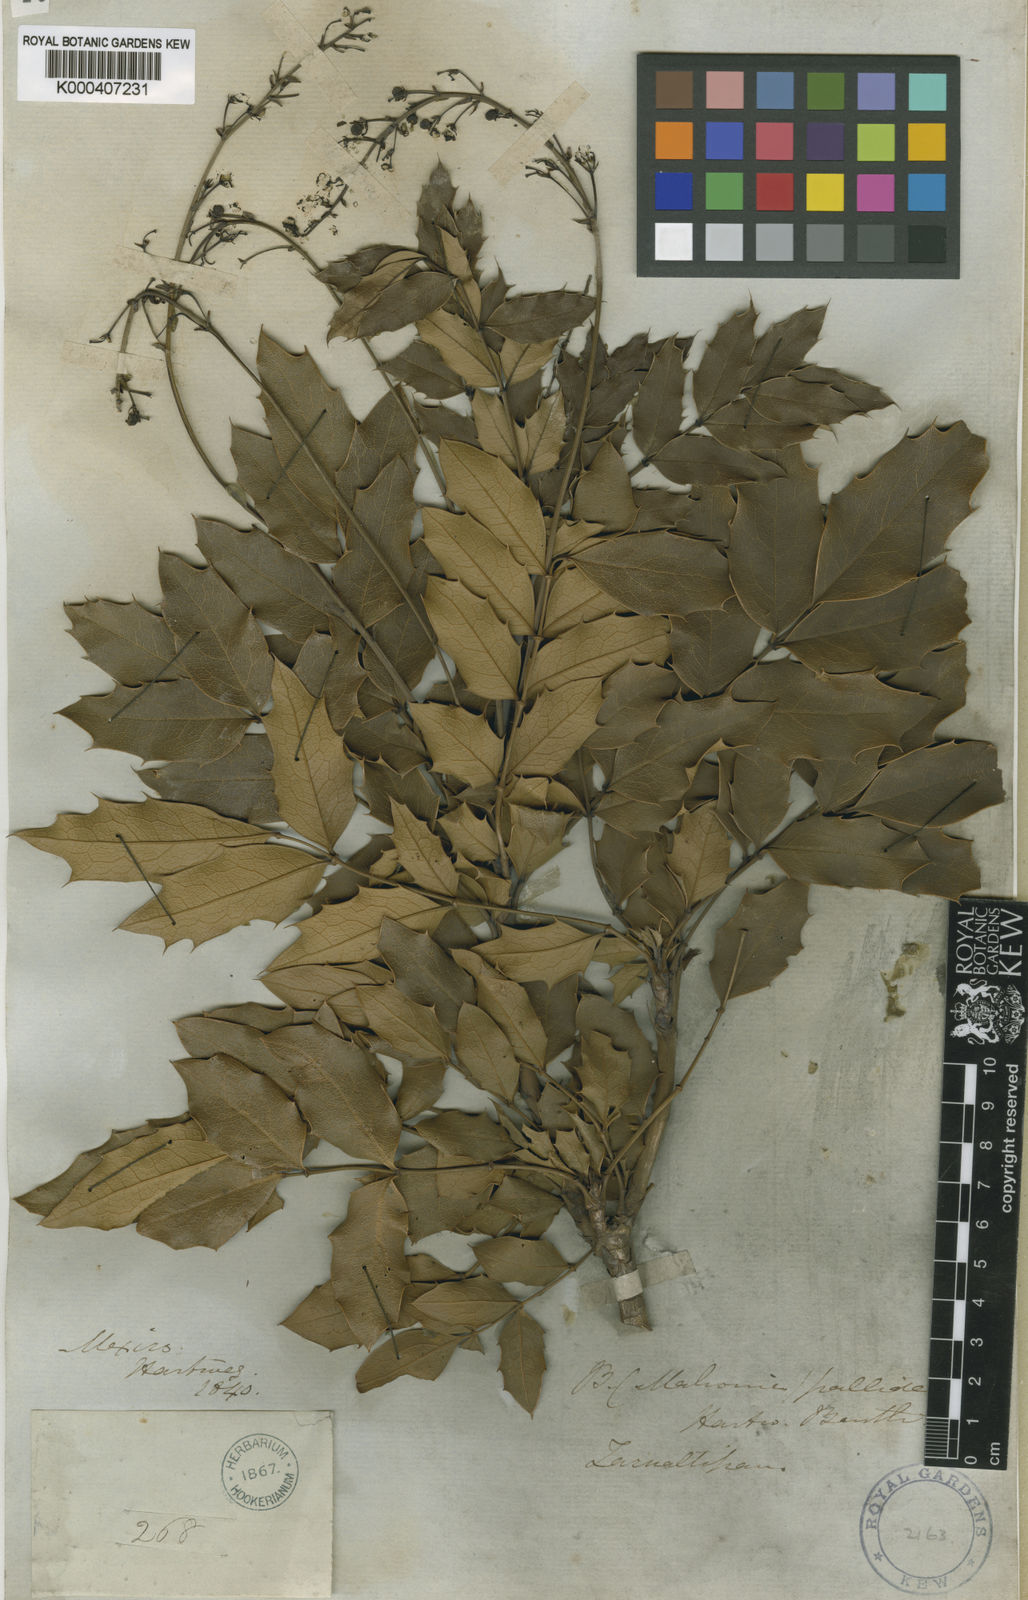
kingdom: Plantae
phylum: Tracheophyta
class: Magnoliopsida
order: Ranunculales
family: Berberidaceae
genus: Mahonia
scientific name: Mahonia pallida
